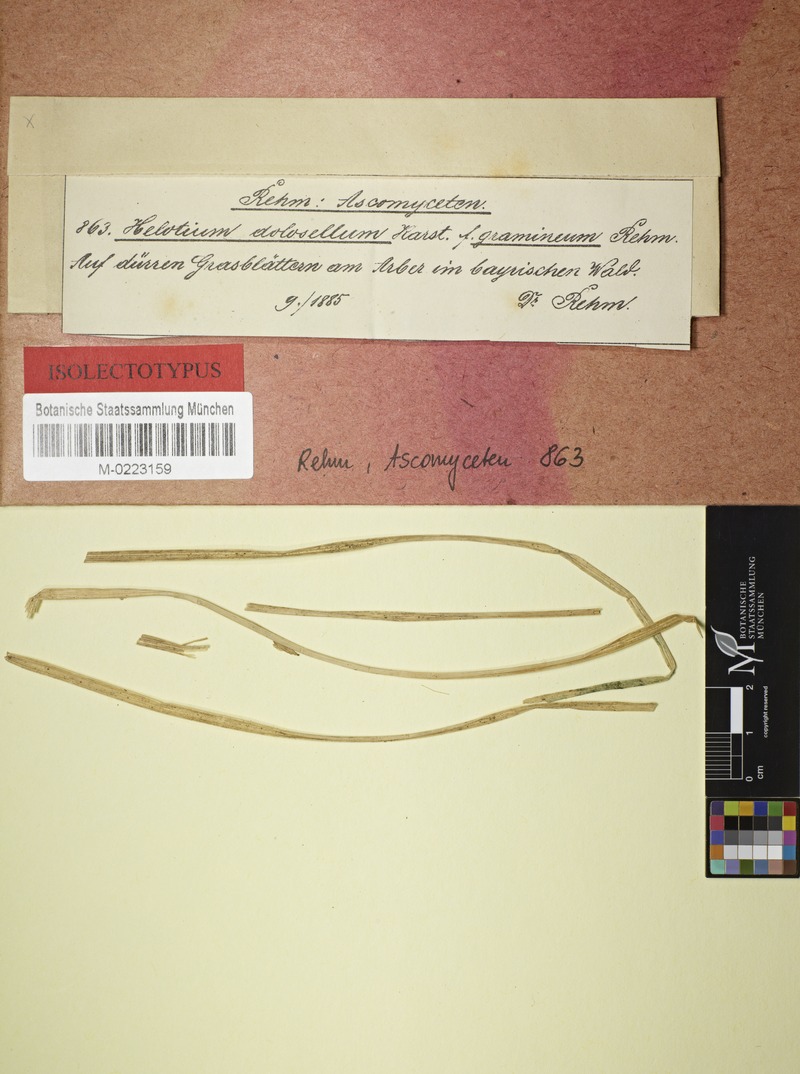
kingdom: Fungi
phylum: Ascomycota
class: Leotiomycetes
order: Helotiales
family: Helotiaceae
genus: Crocicreas
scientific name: Crocicreas megalosporum
